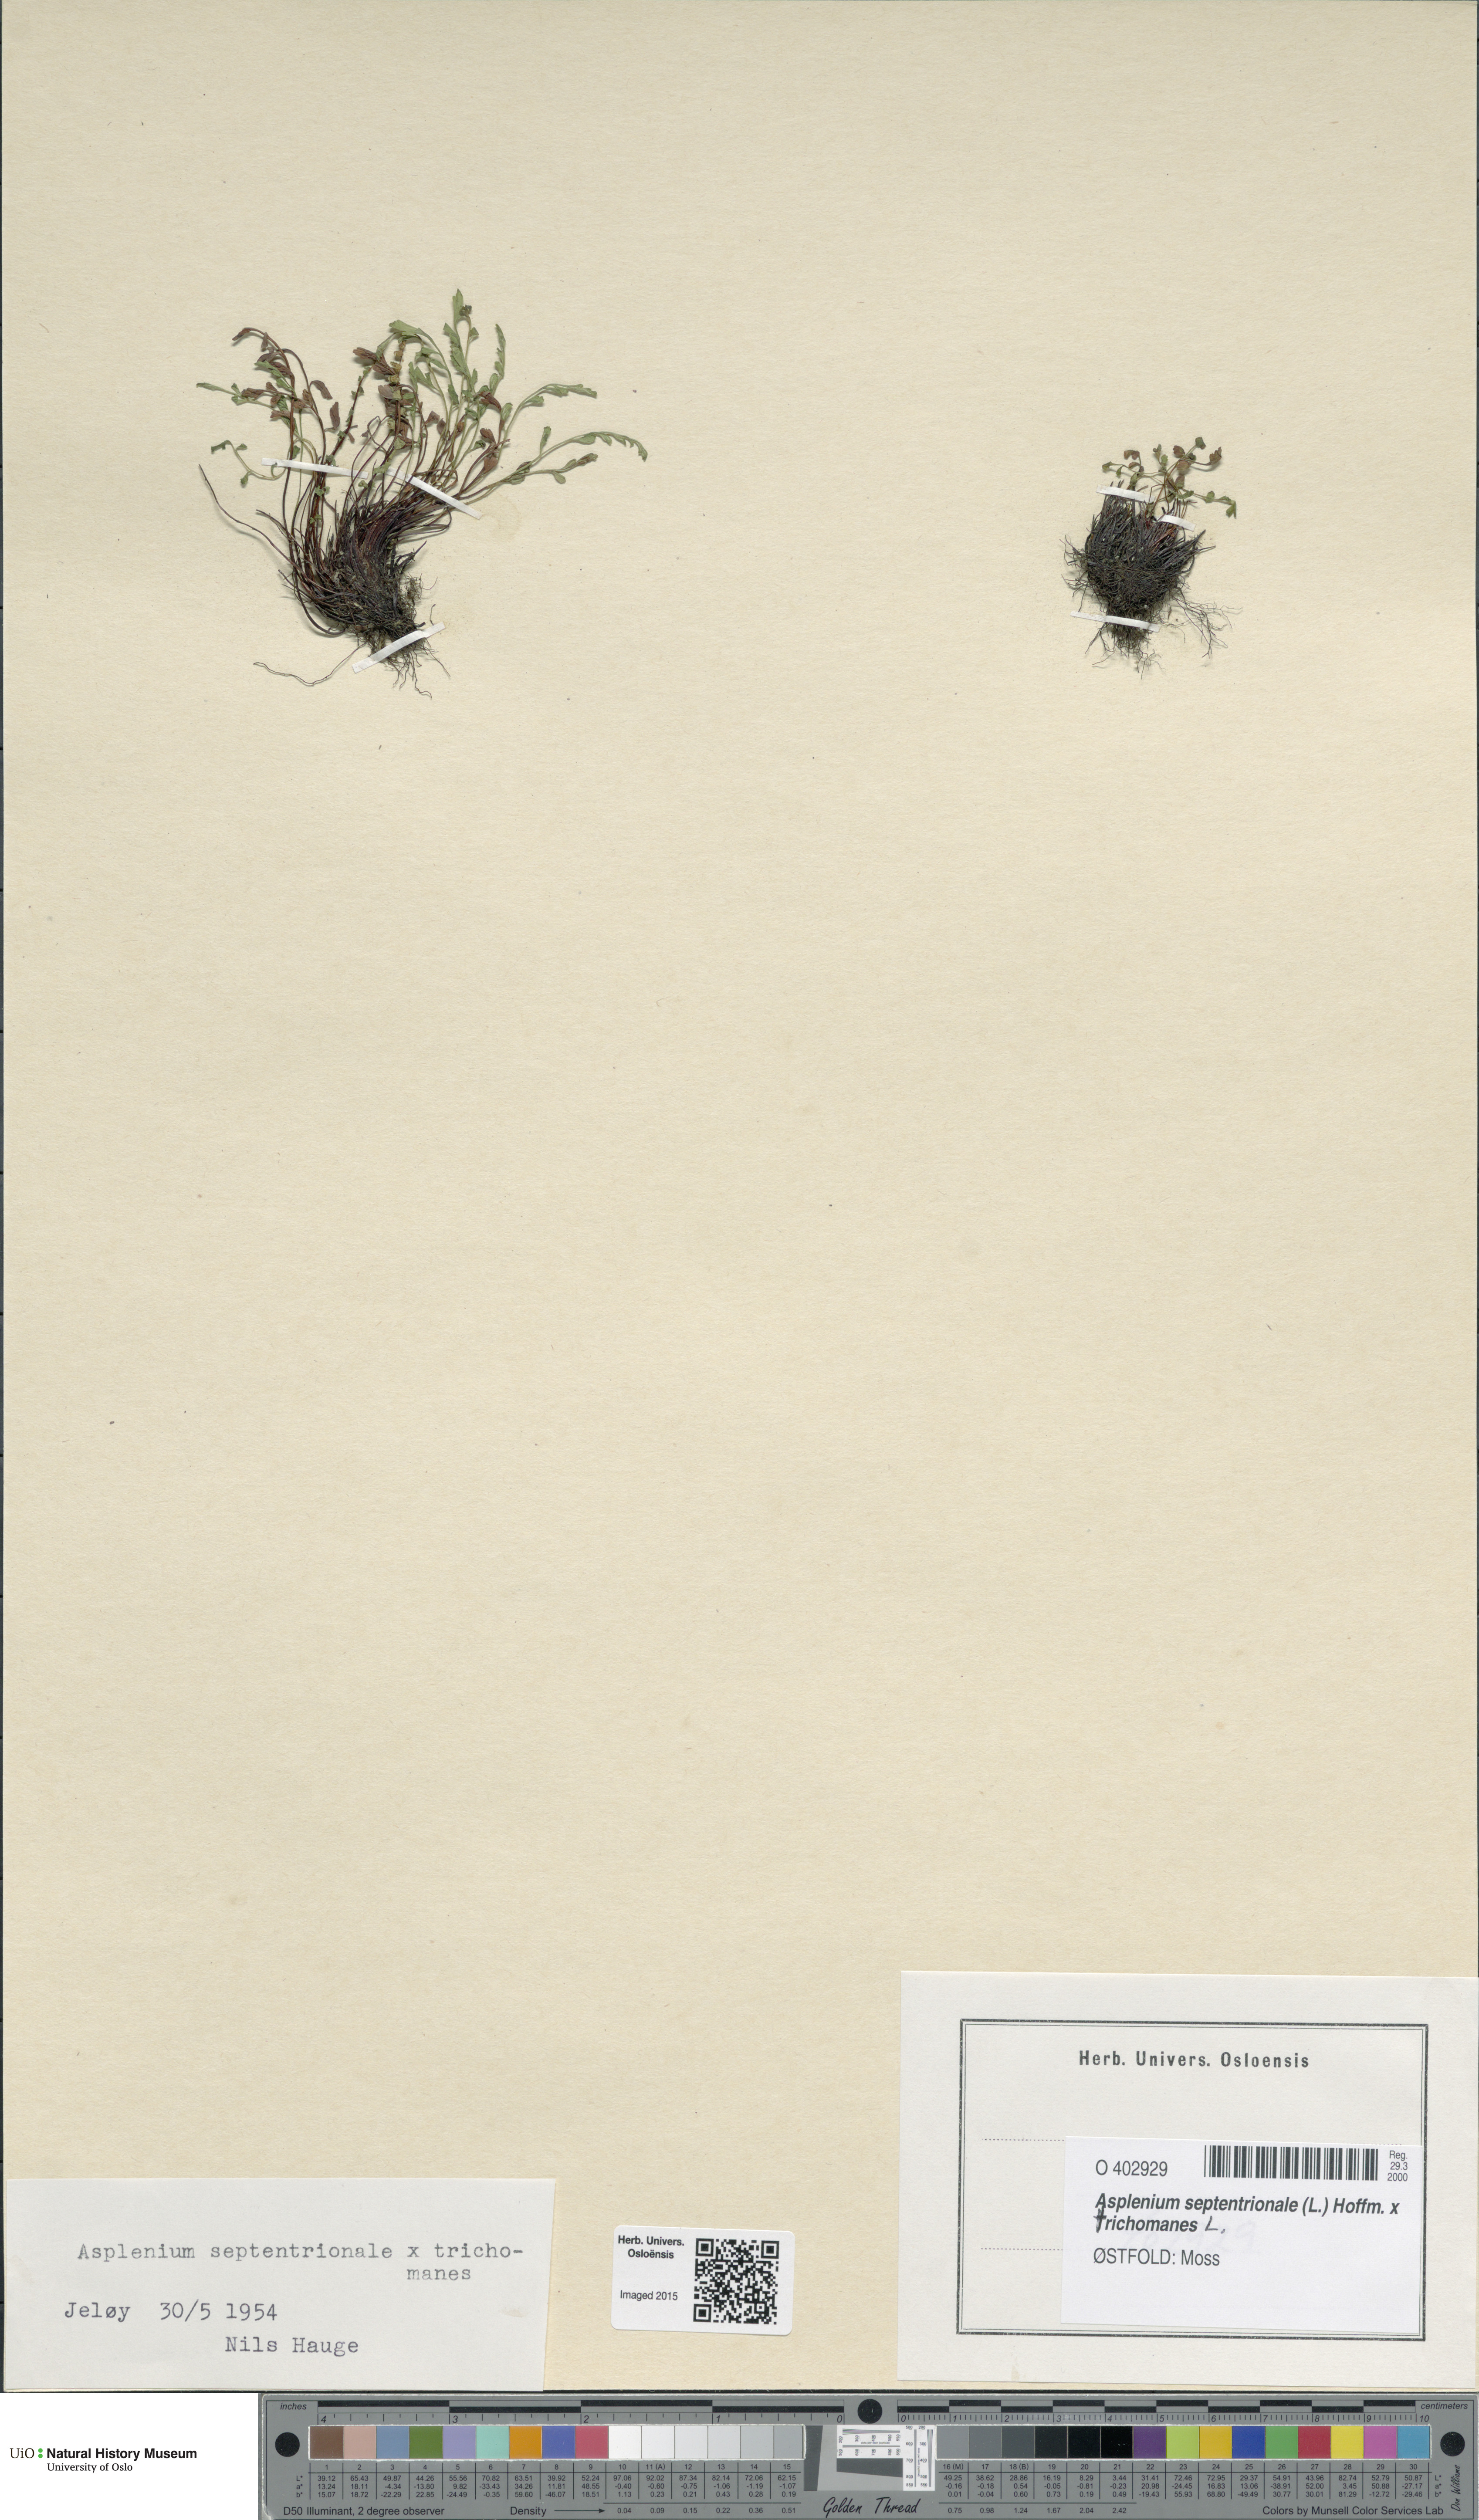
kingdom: Plantae
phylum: Tracheophyta
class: Polypodiopsida
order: Polypodiales
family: Aspleniaceae
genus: Asplenium
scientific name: Asplenium
